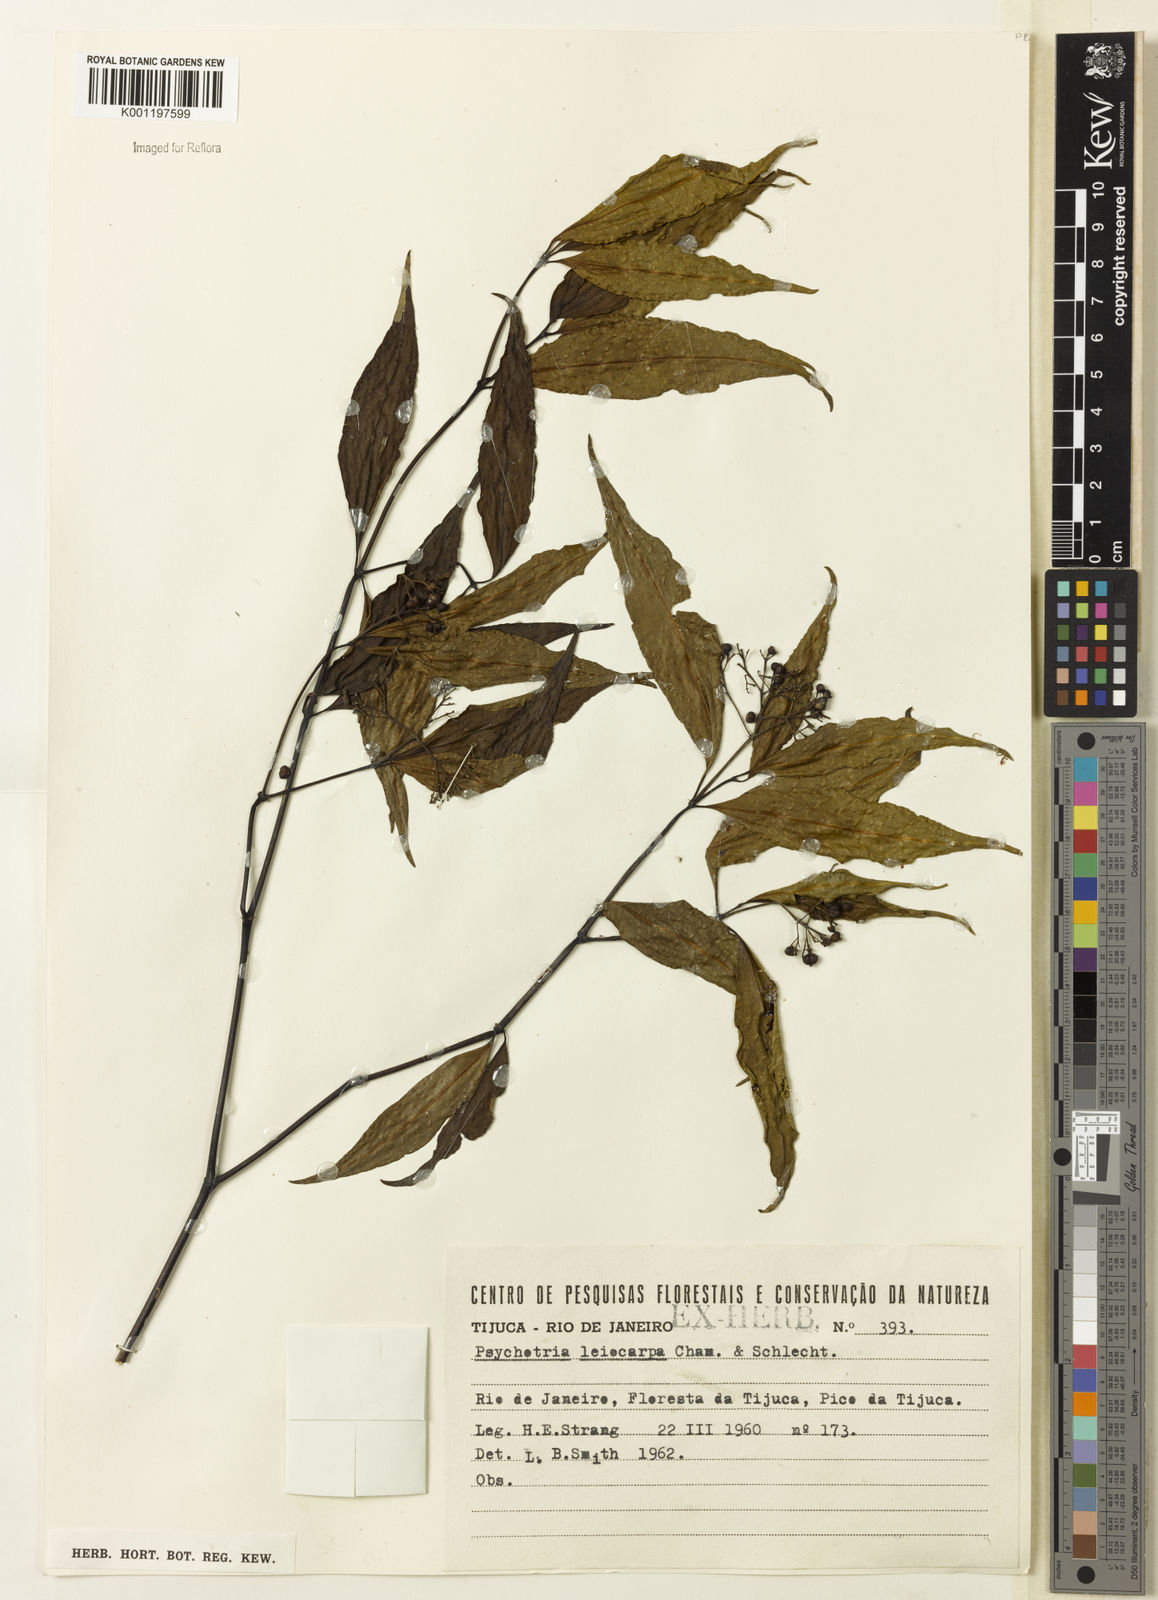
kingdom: Plantae
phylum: Tracheophyta
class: Magnoliopsida
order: Gentianales
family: Rubiaceae
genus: Psychotria
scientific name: Psychotria leiocarpa
